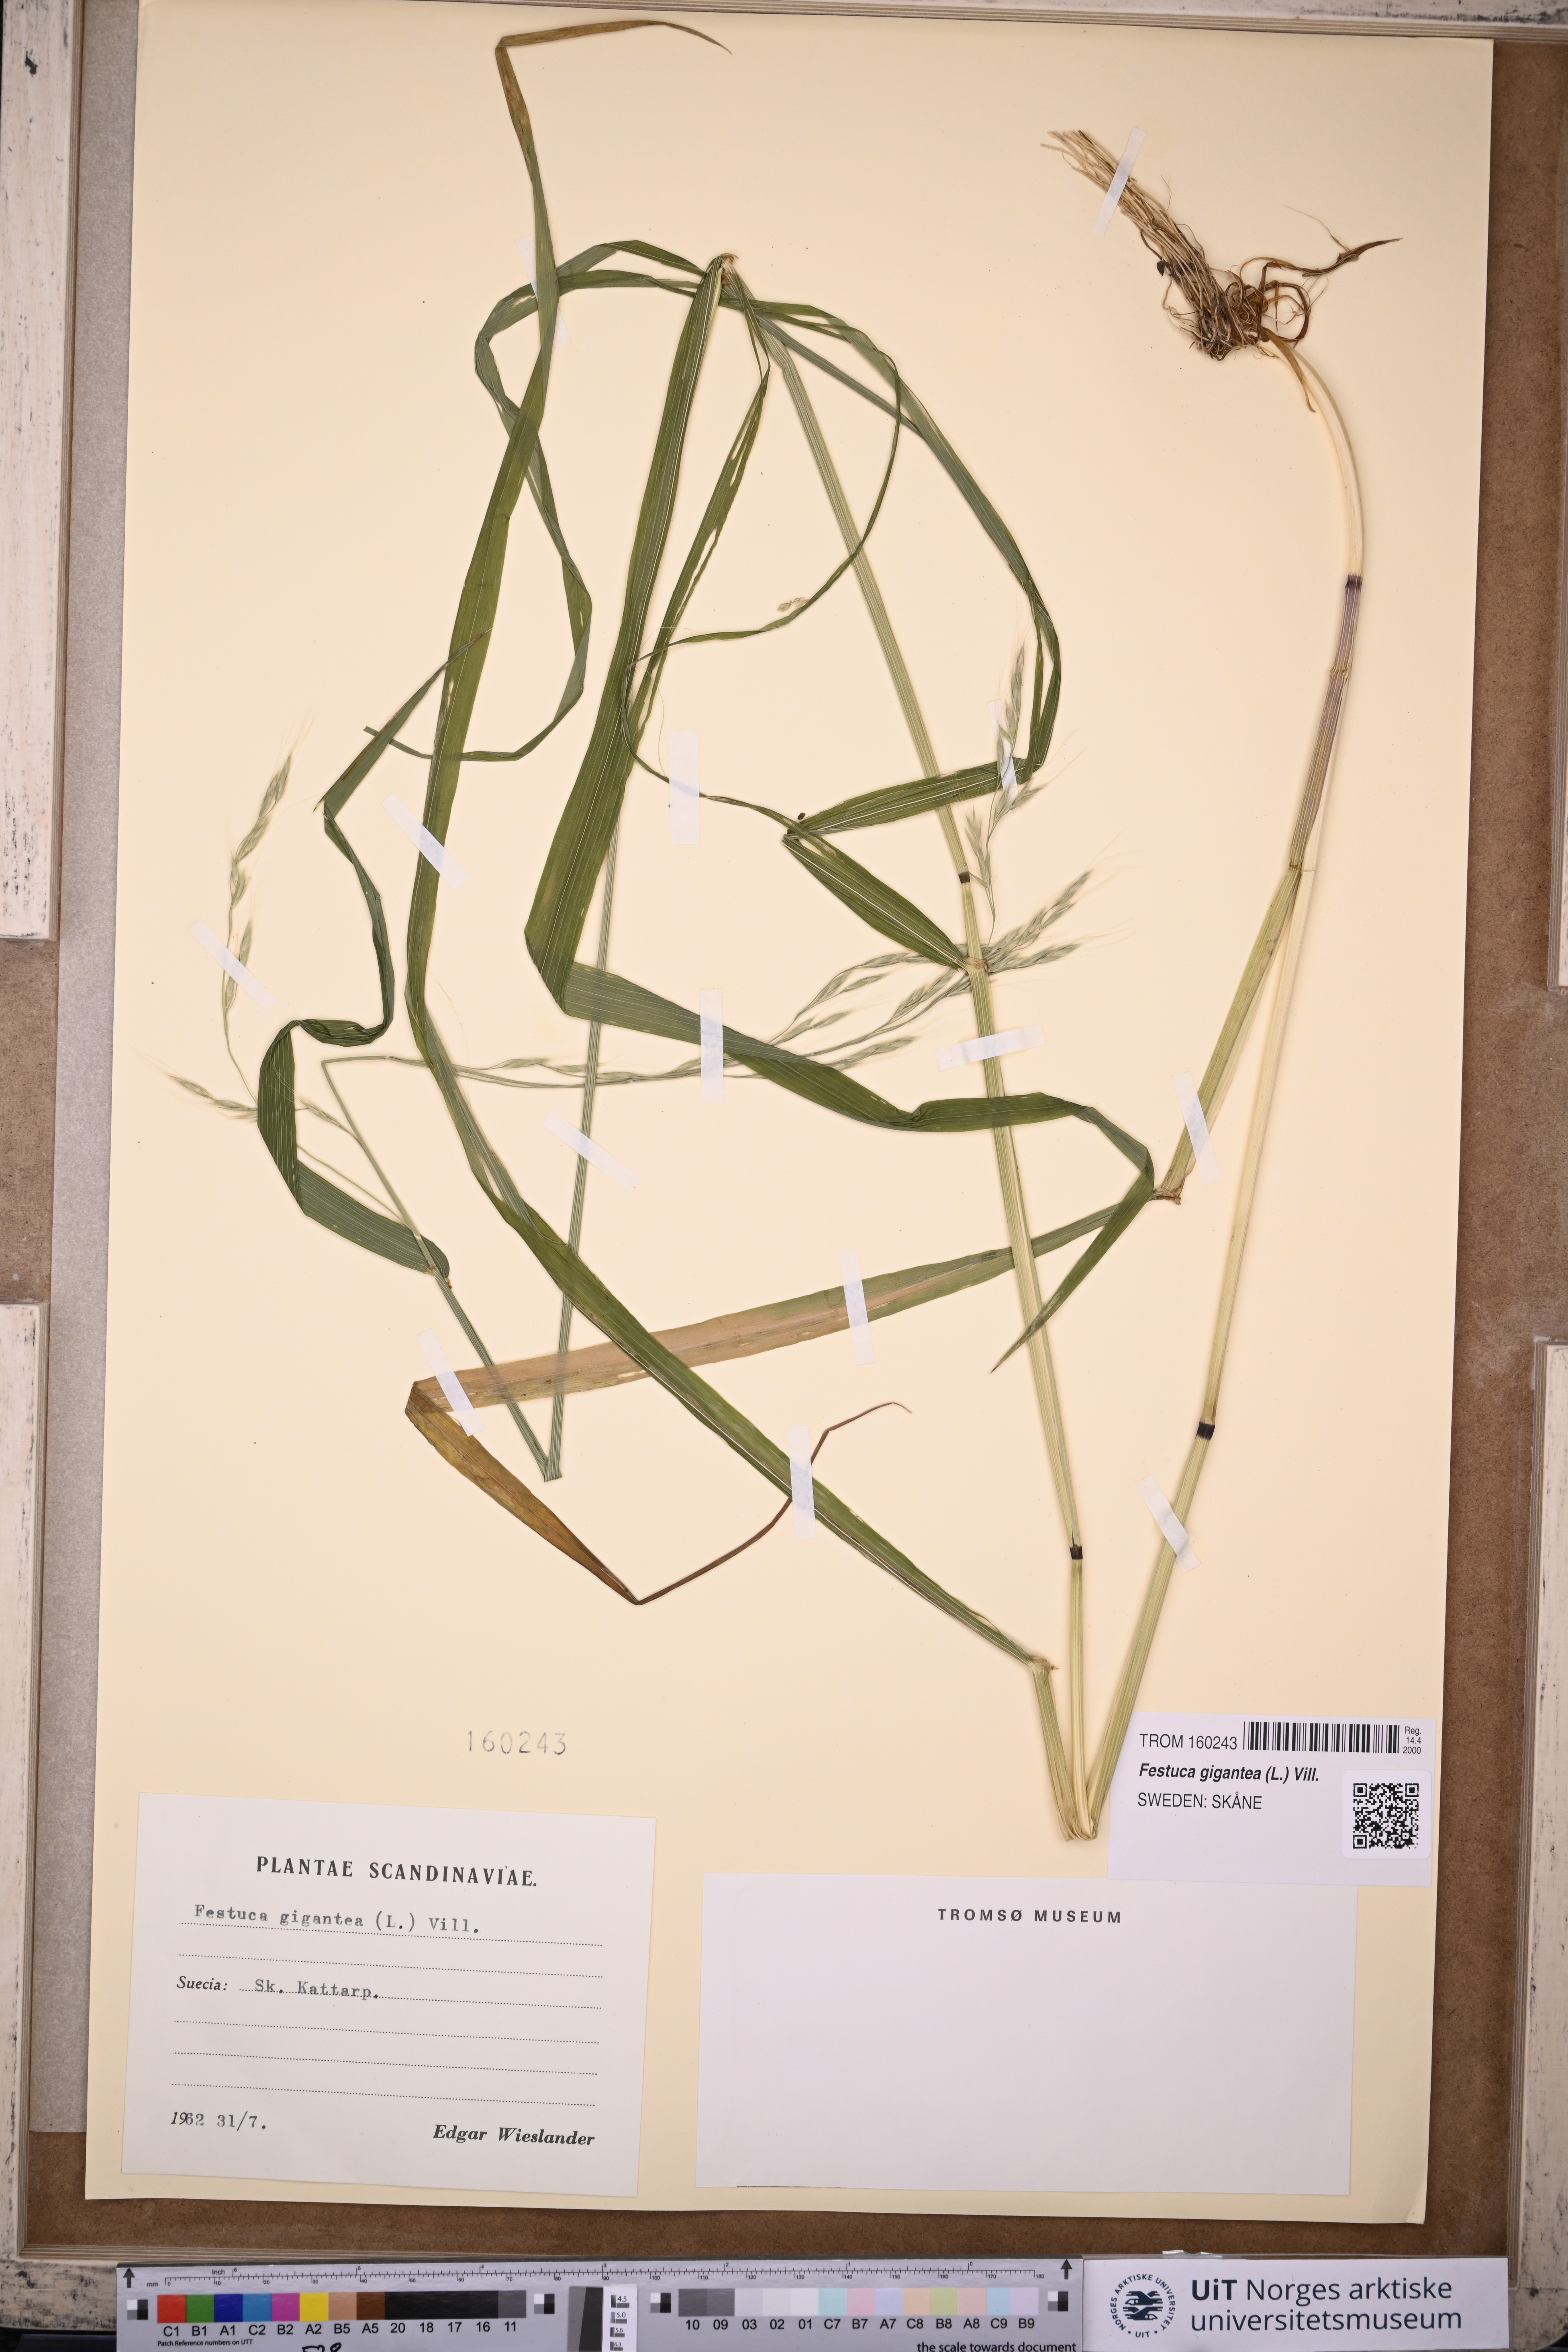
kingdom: Plantae
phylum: Tracheophyta
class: Liliopsida
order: Poales
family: Poaceae
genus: Lolium
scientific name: Lolium giganteum
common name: Giant fescue
